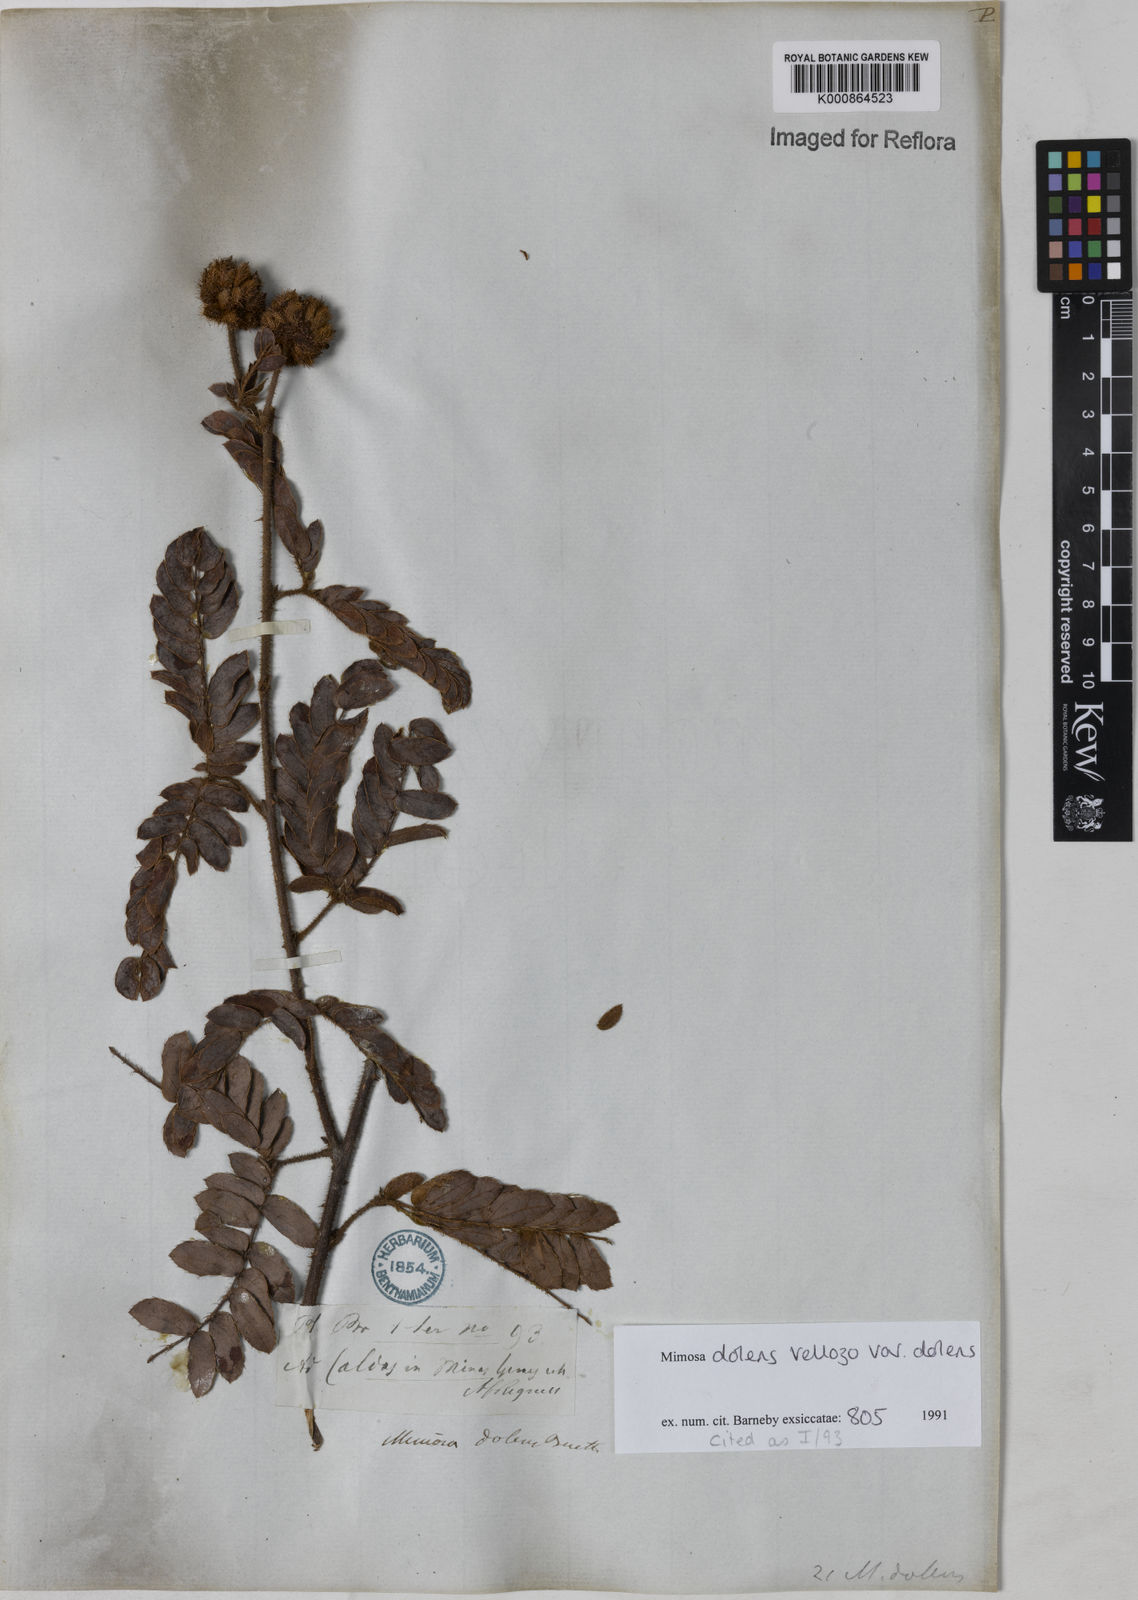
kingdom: Plantae
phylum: Tracheophyta
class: Magnoliopsida
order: Fabales
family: Fabaceae
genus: Mimosa
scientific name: Mimosa dolens
